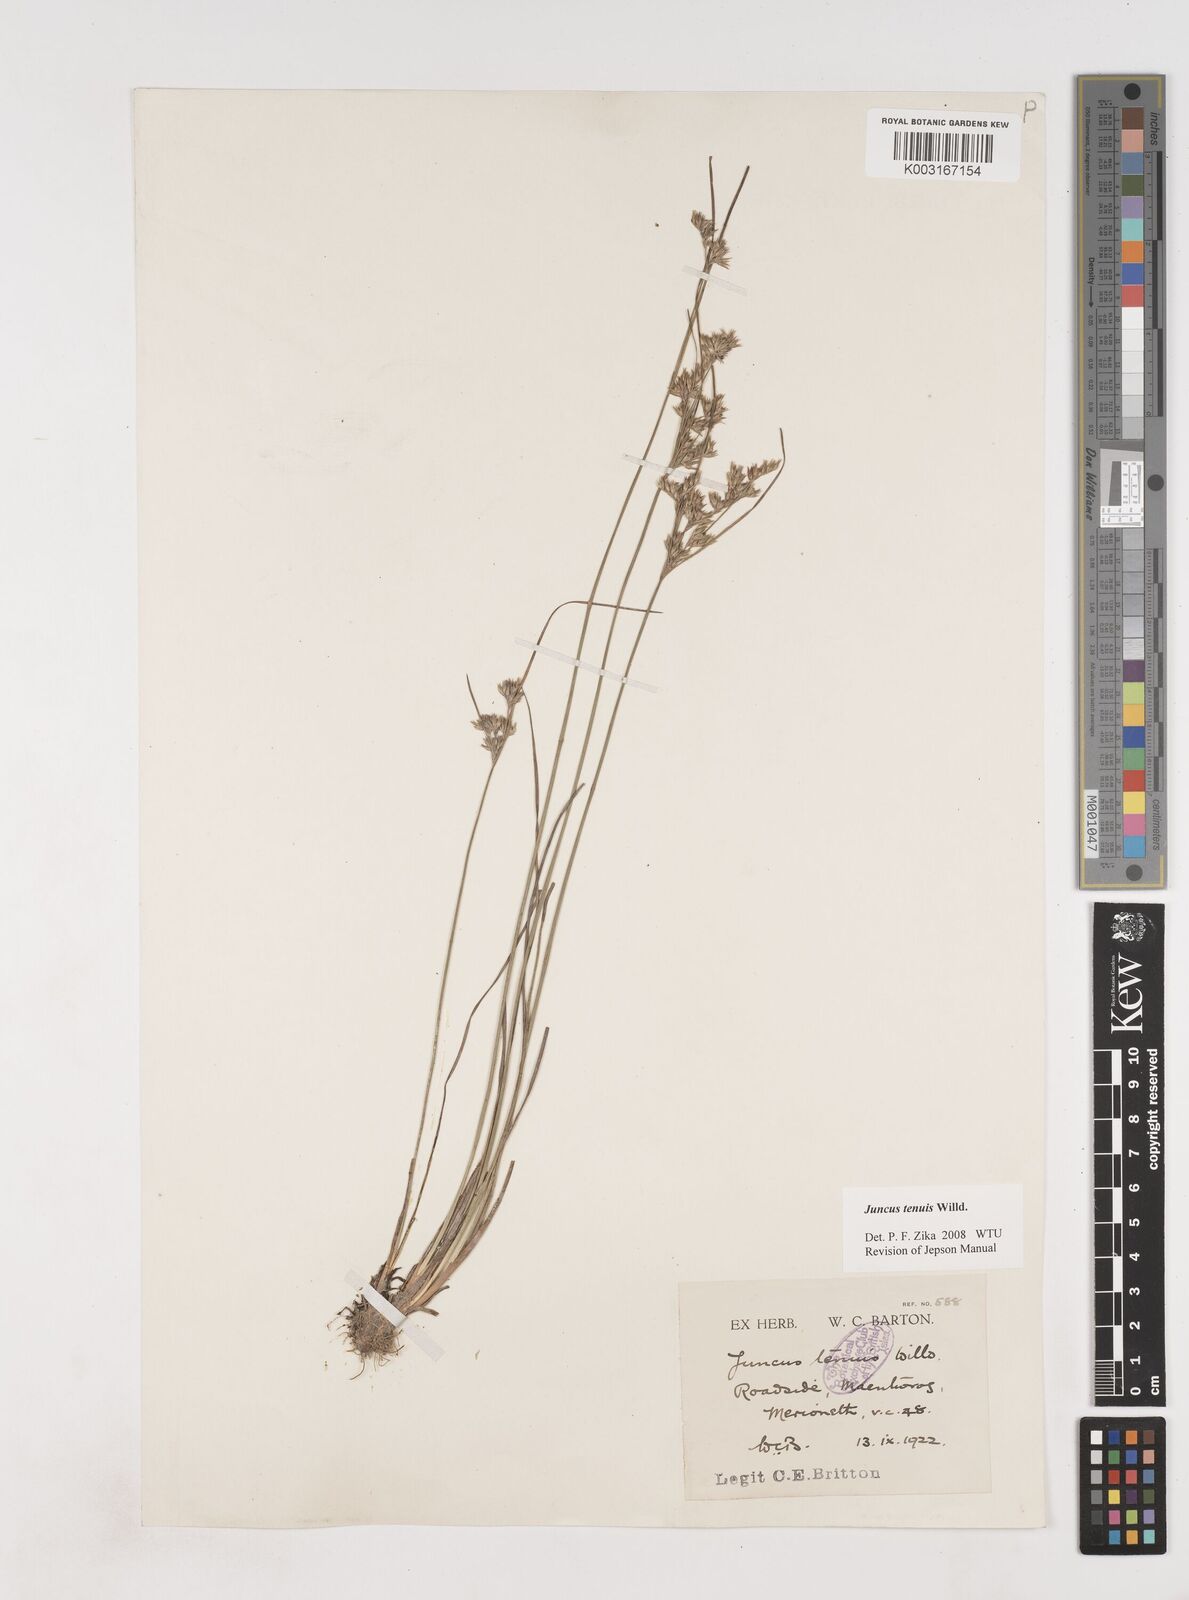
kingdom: Plantae
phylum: Tracheophyta
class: Liliopsida
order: Poales
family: Juncaceae
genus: Juncus
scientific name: Juncus tenuis
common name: Slender rush
